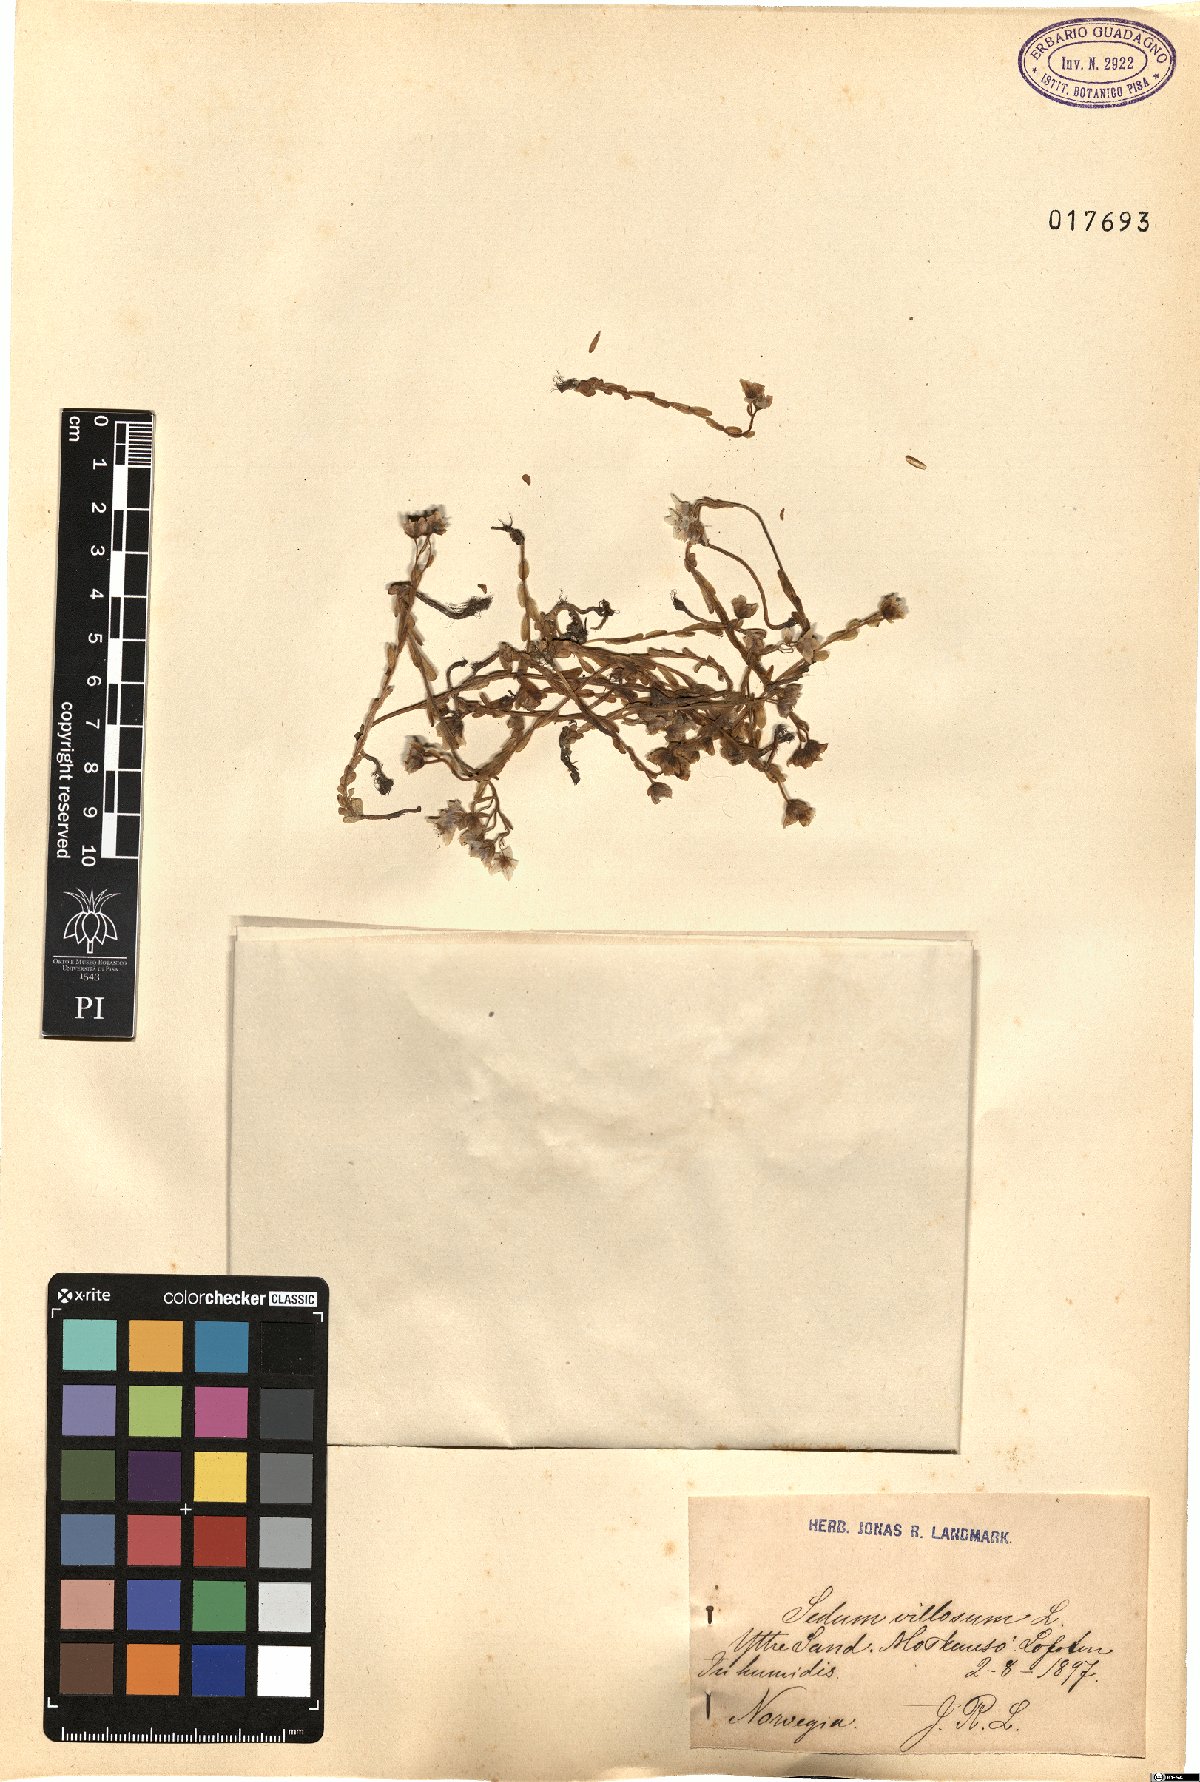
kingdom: Plantae
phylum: Tracheophyta
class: Magnoliopsida
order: Saxifragales
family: Crassulaceae
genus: Sedum
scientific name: Sedum villosum
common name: Hairy stonecrop
